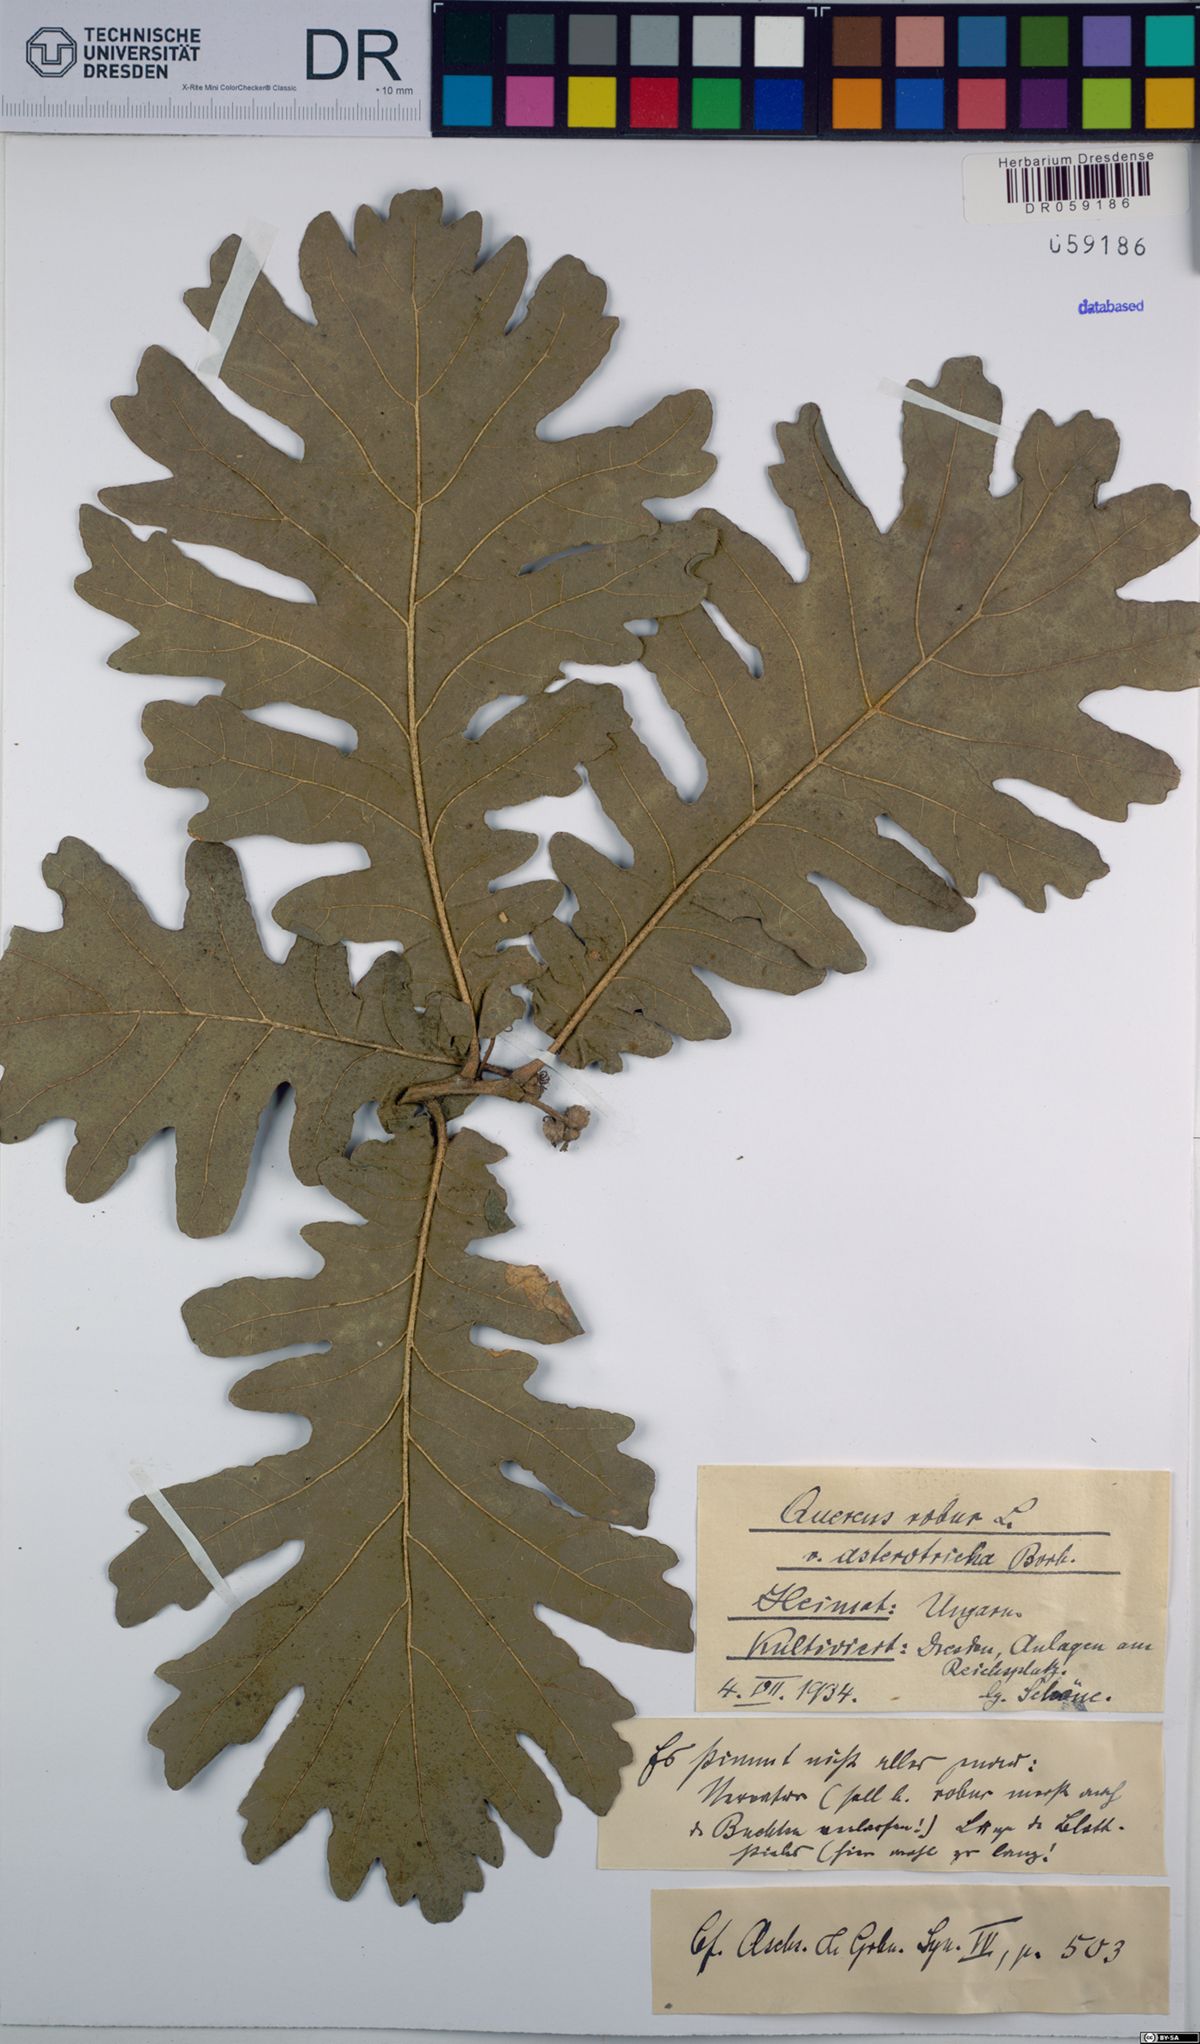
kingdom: Plantae
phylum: Tracheophyta
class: Magnoliopsida
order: Fagales
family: Fagaceae
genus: Quercus
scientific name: Quercus robur
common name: Pedunculate oak
